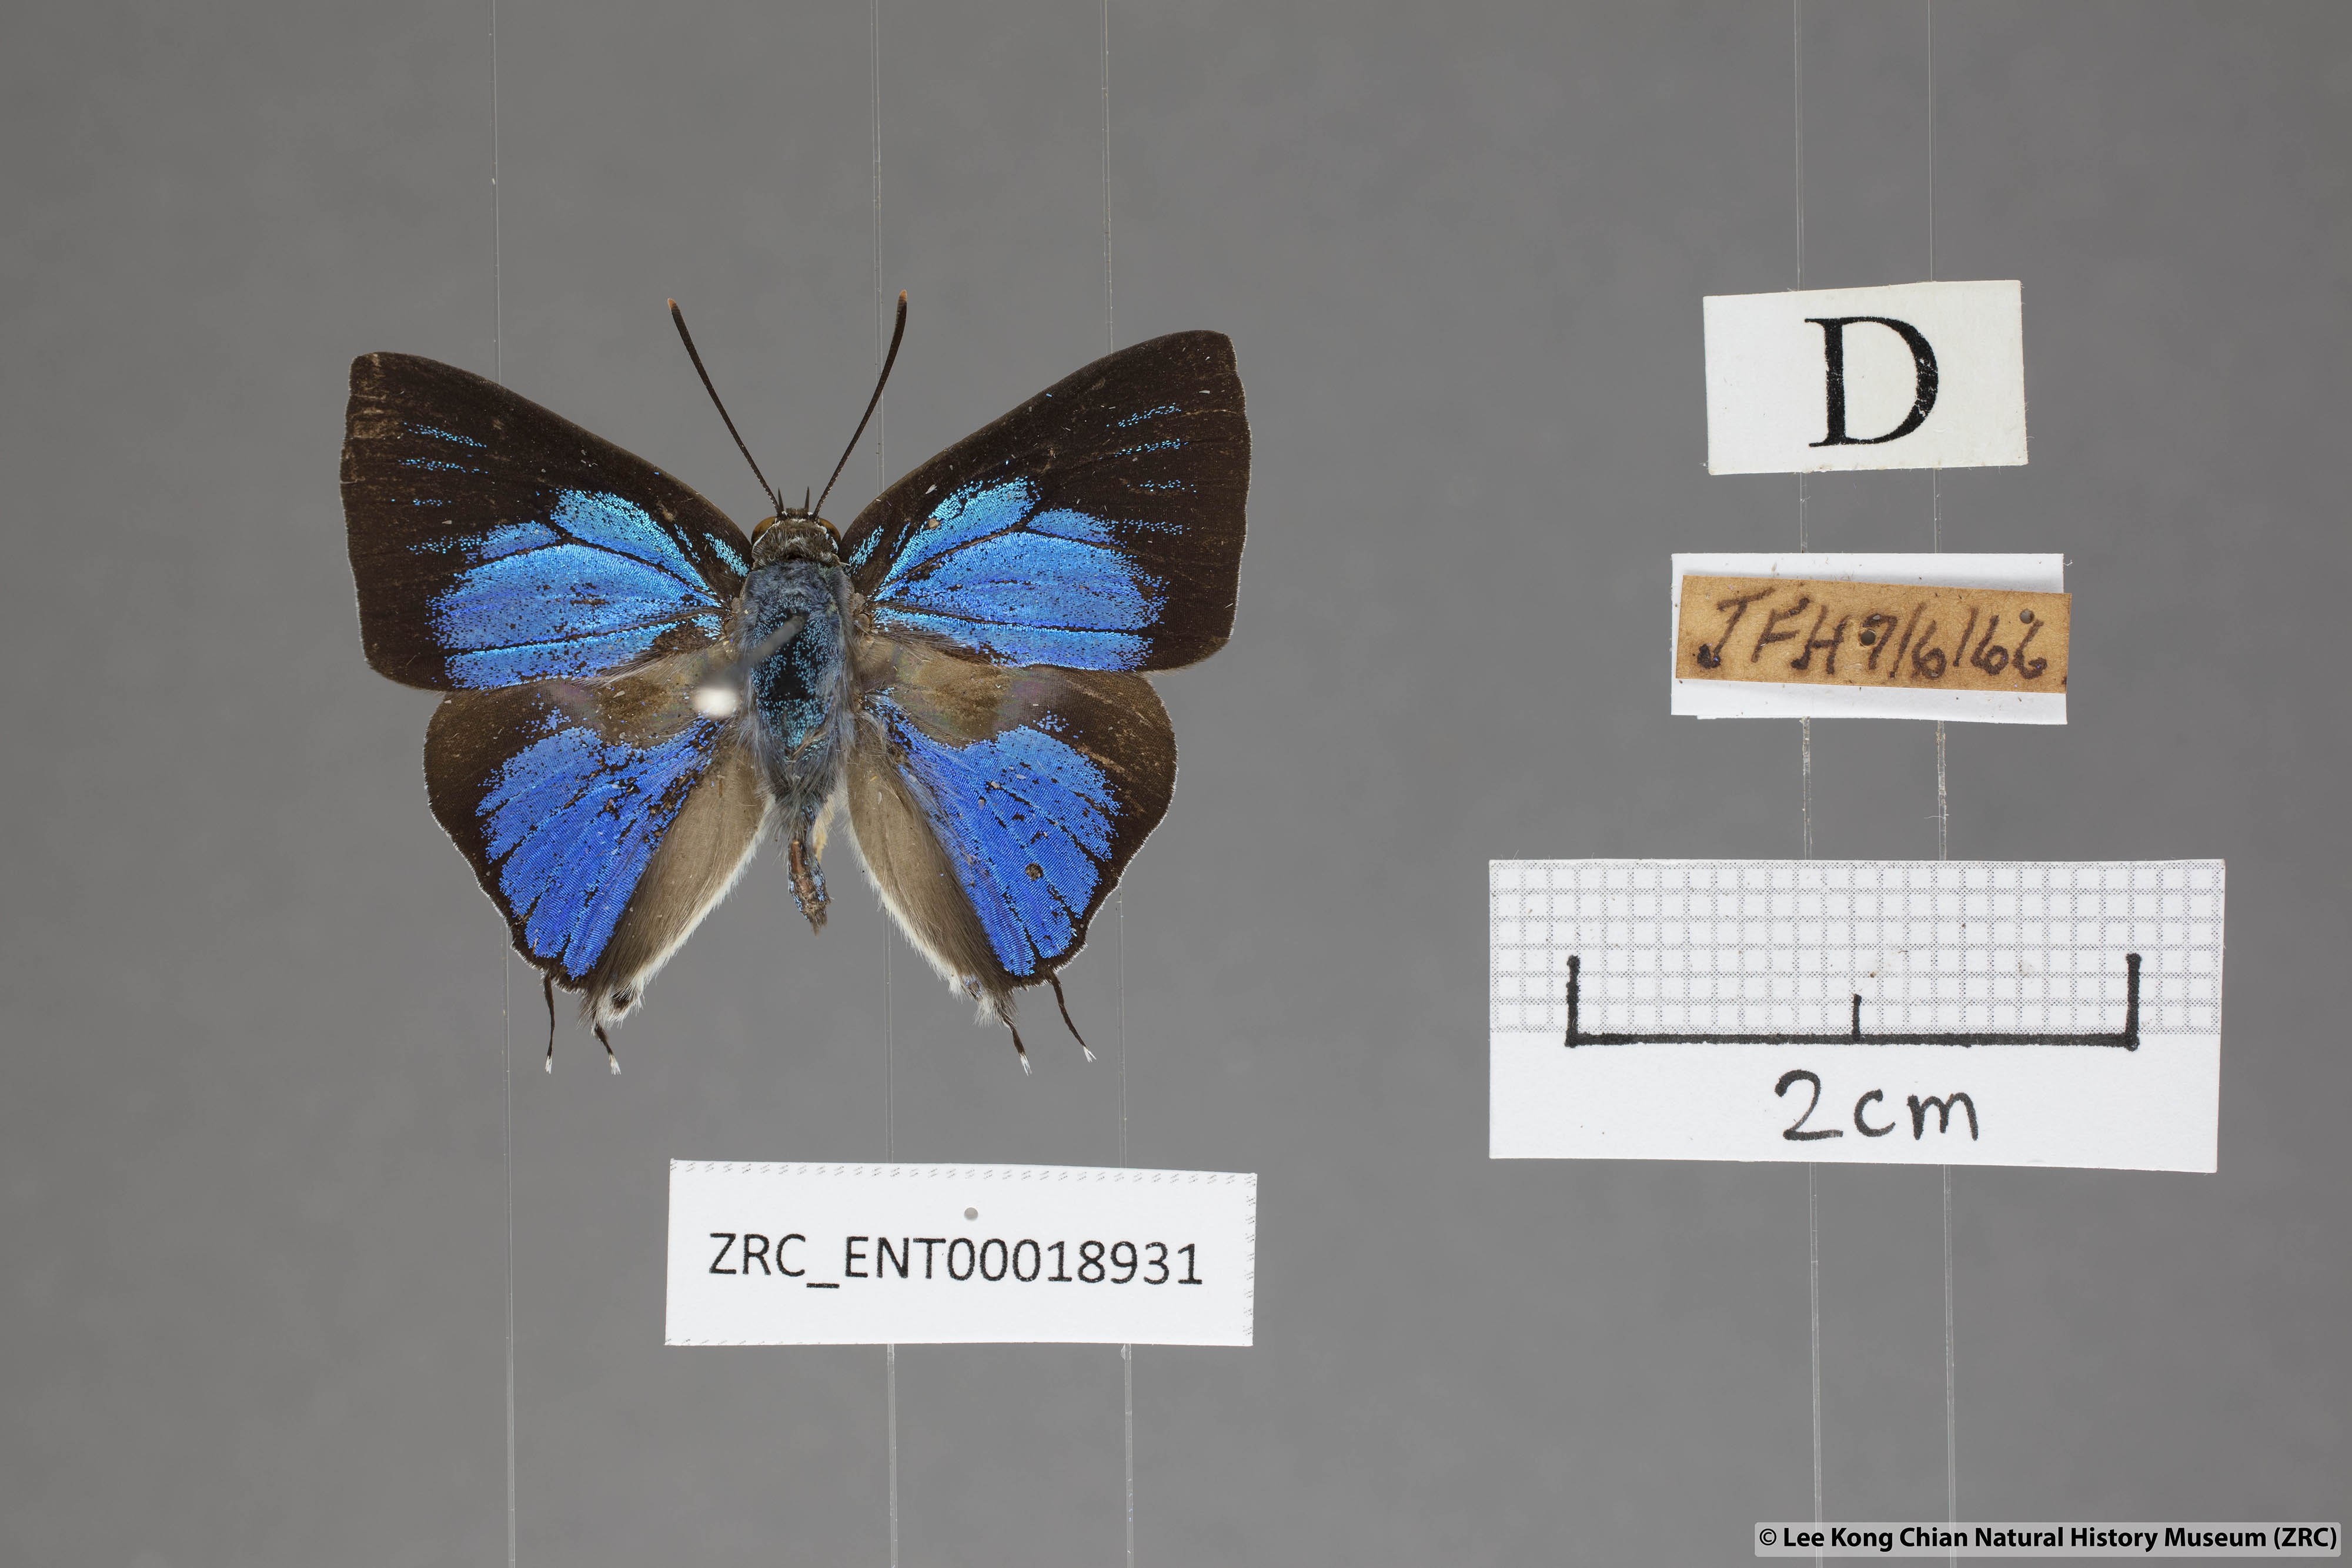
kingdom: Animalia
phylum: Arthropoda
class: Insecta
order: Lepidoptera
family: Lycaenidae
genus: Ancema
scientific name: Ancema blanka
